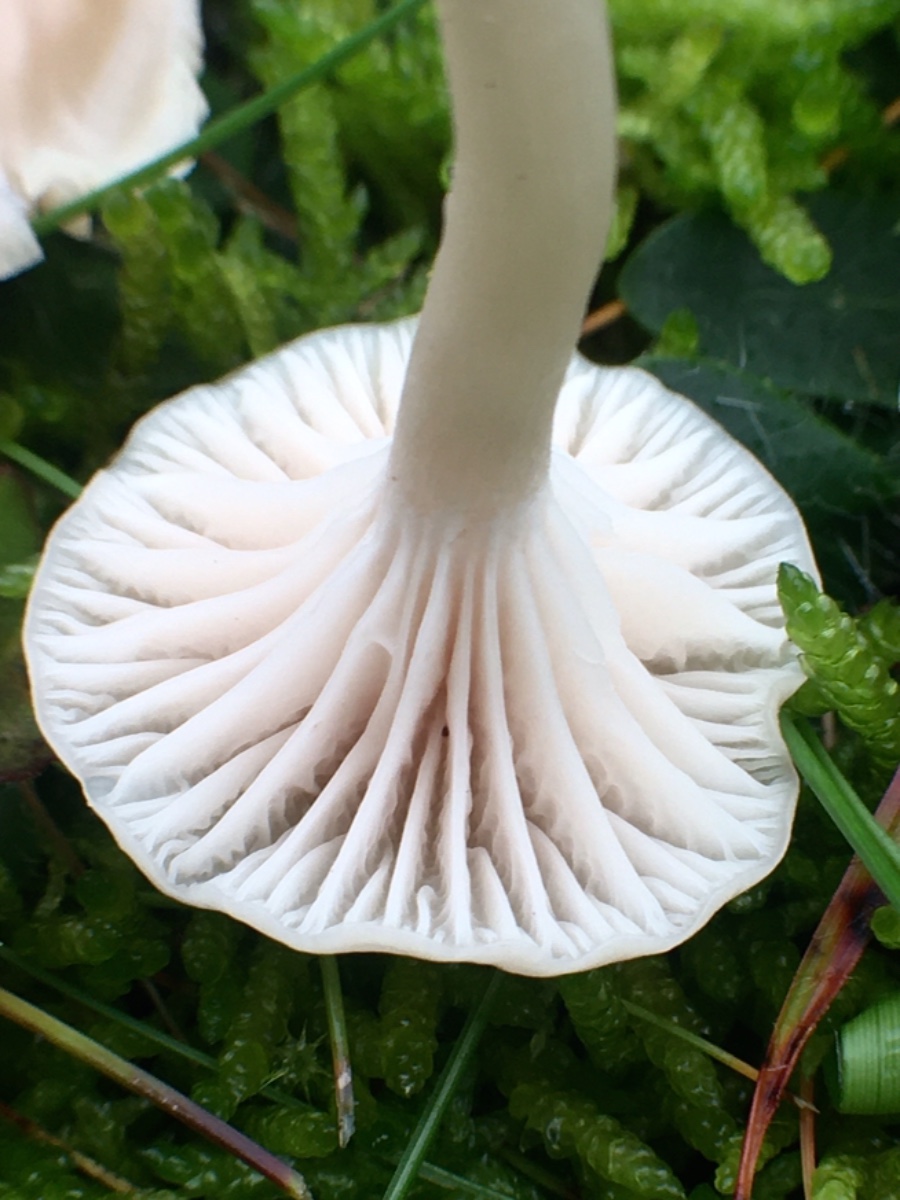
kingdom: Fungi
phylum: Basidiomycota
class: Agaricomycetes
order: Agaricales
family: Hygrophoraceae
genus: Cuphophyllus
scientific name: Cuphophyllus
